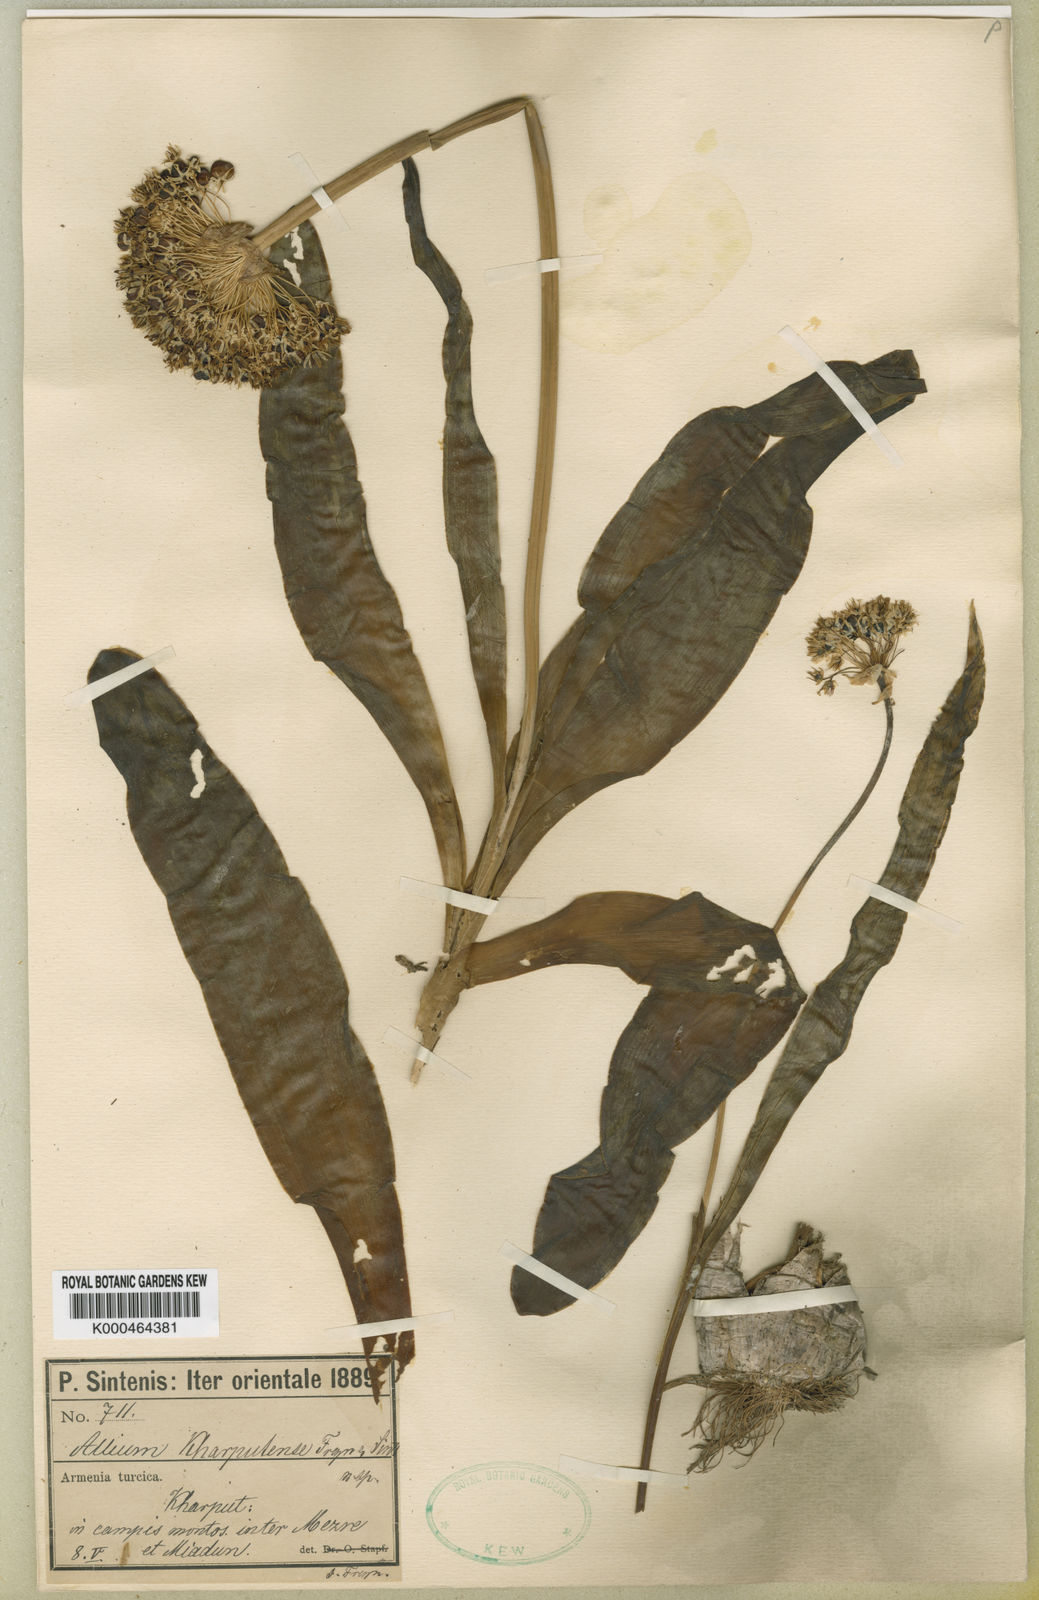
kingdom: Plantae
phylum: Tracheophyta
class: Liliopsida
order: Asparagales
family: Amaryllidaceae
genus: Allium
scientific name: Allium kharputense
